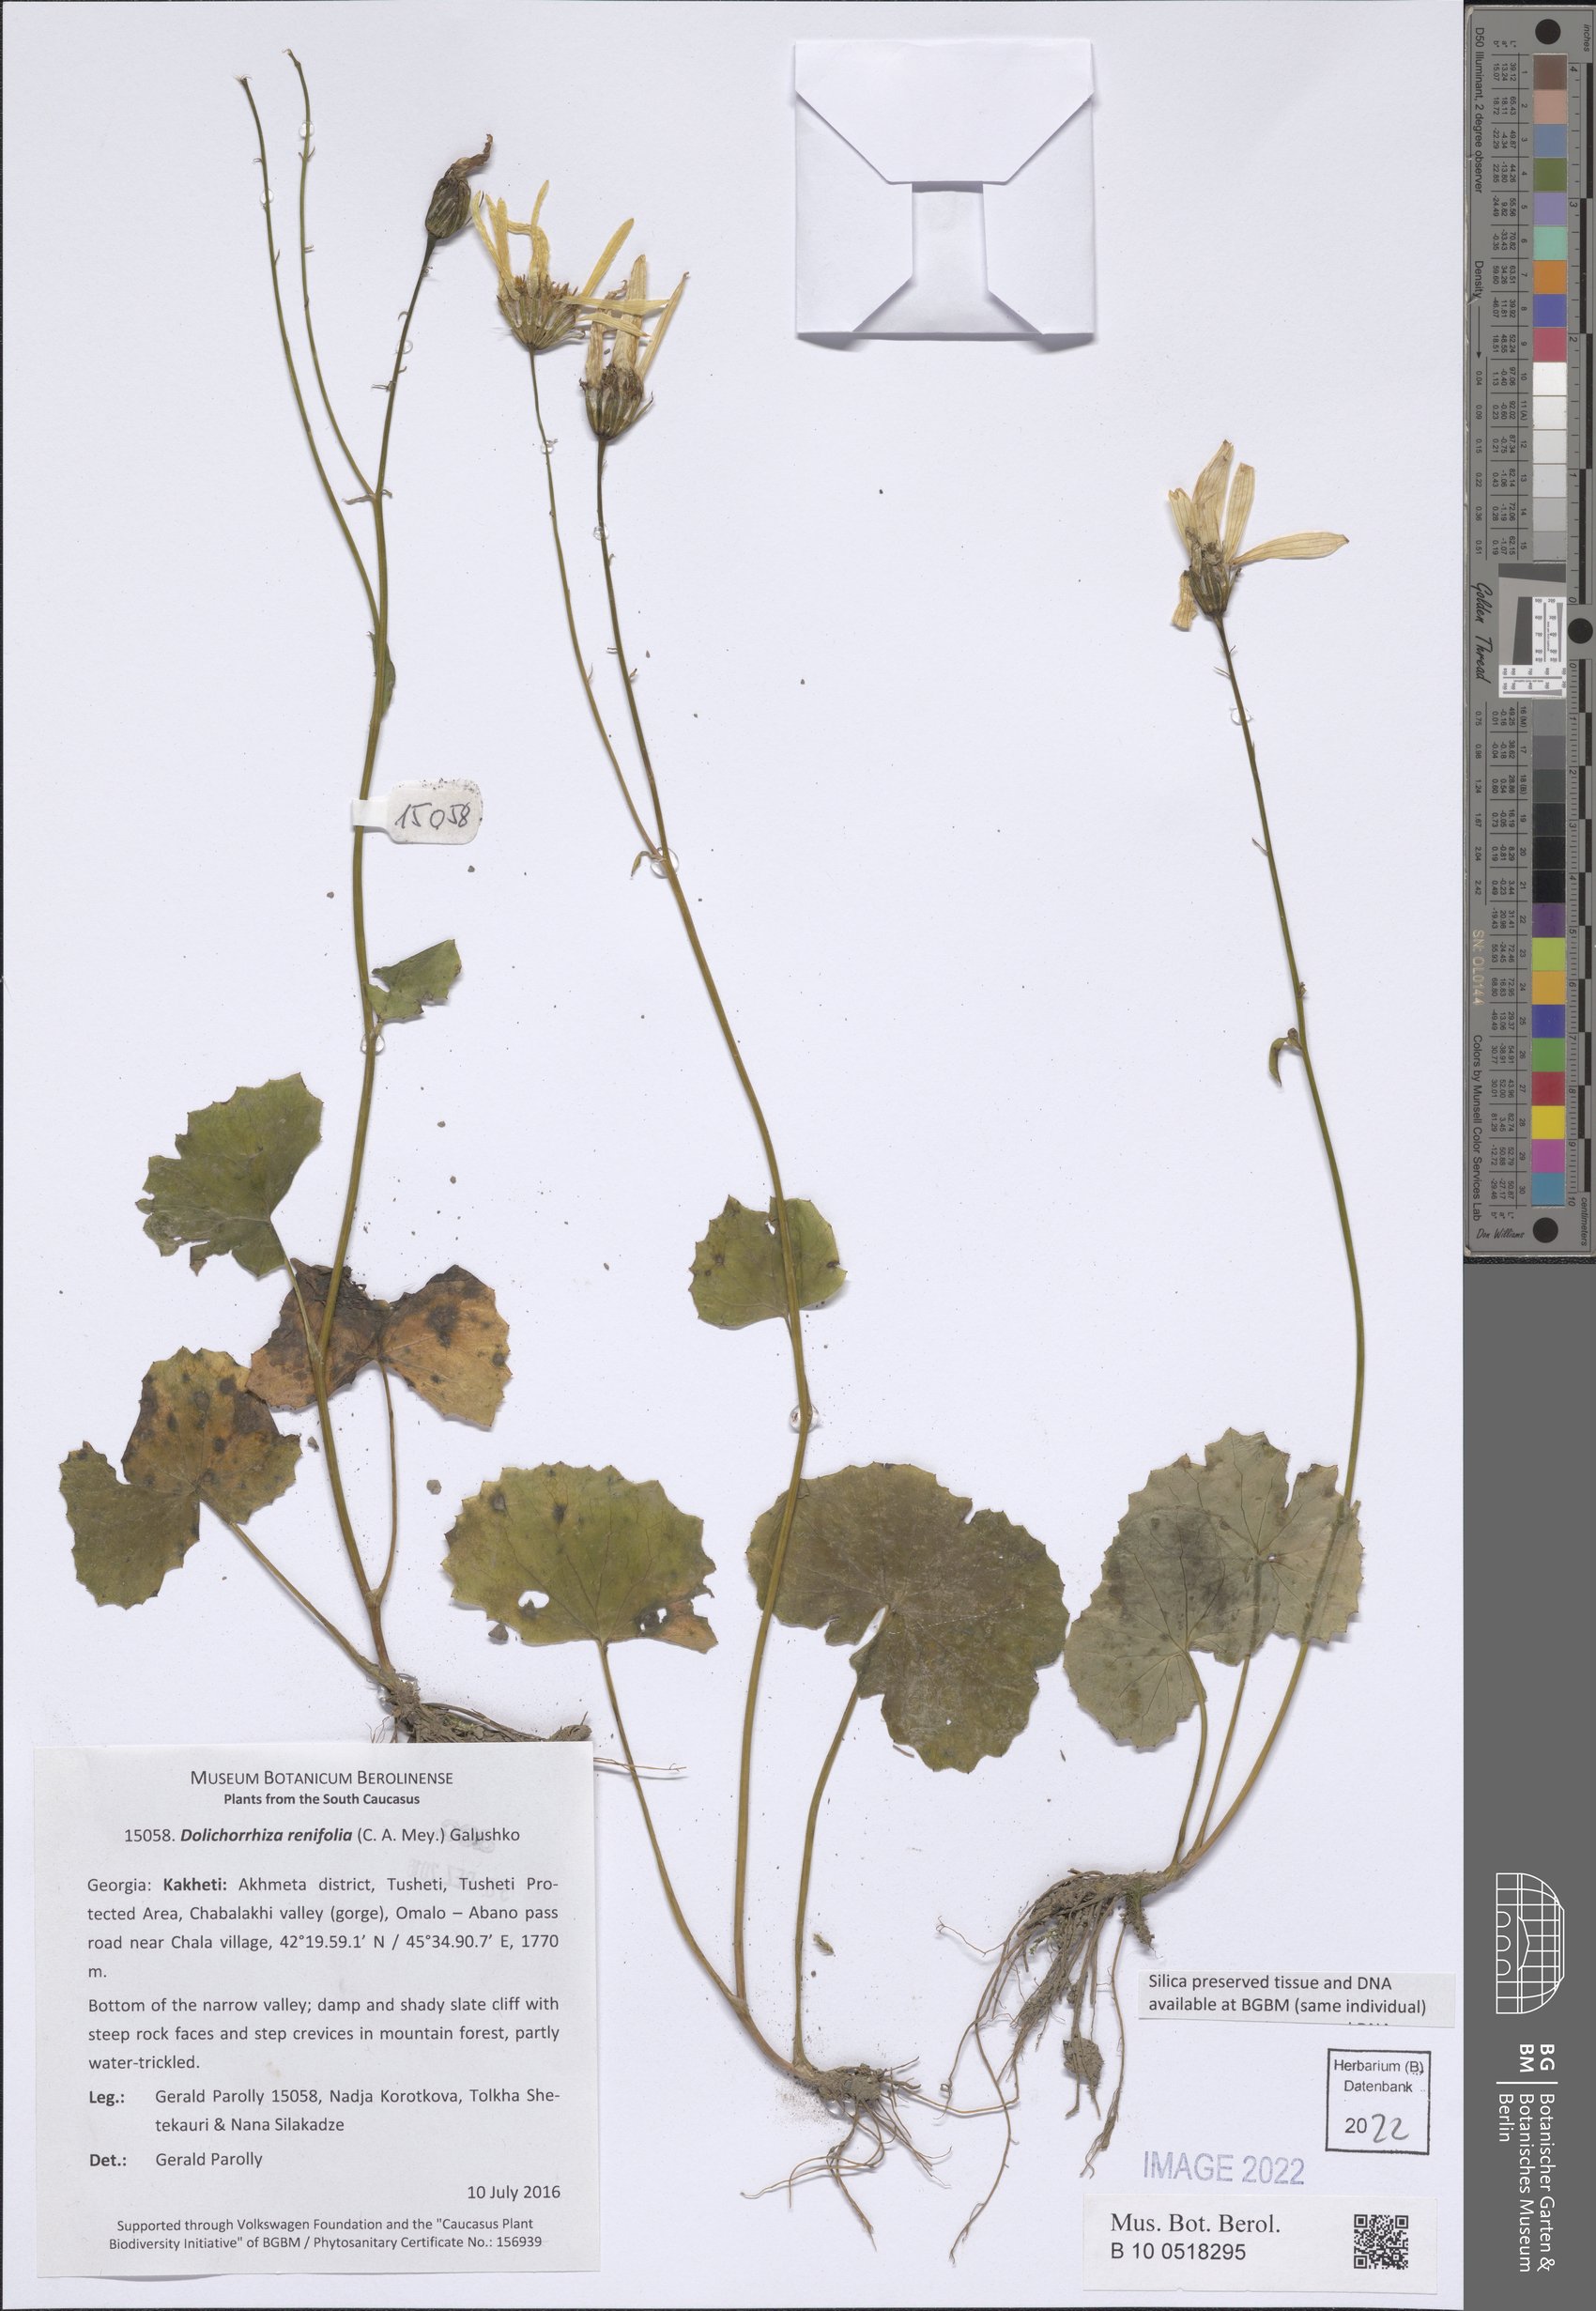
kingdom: Plantae
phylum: Tracheophyta
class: Magnoliopsida
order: Asterales
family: Asteraceae
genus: Dolichorrhiza
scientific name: Dolichorrhiza renifolia
